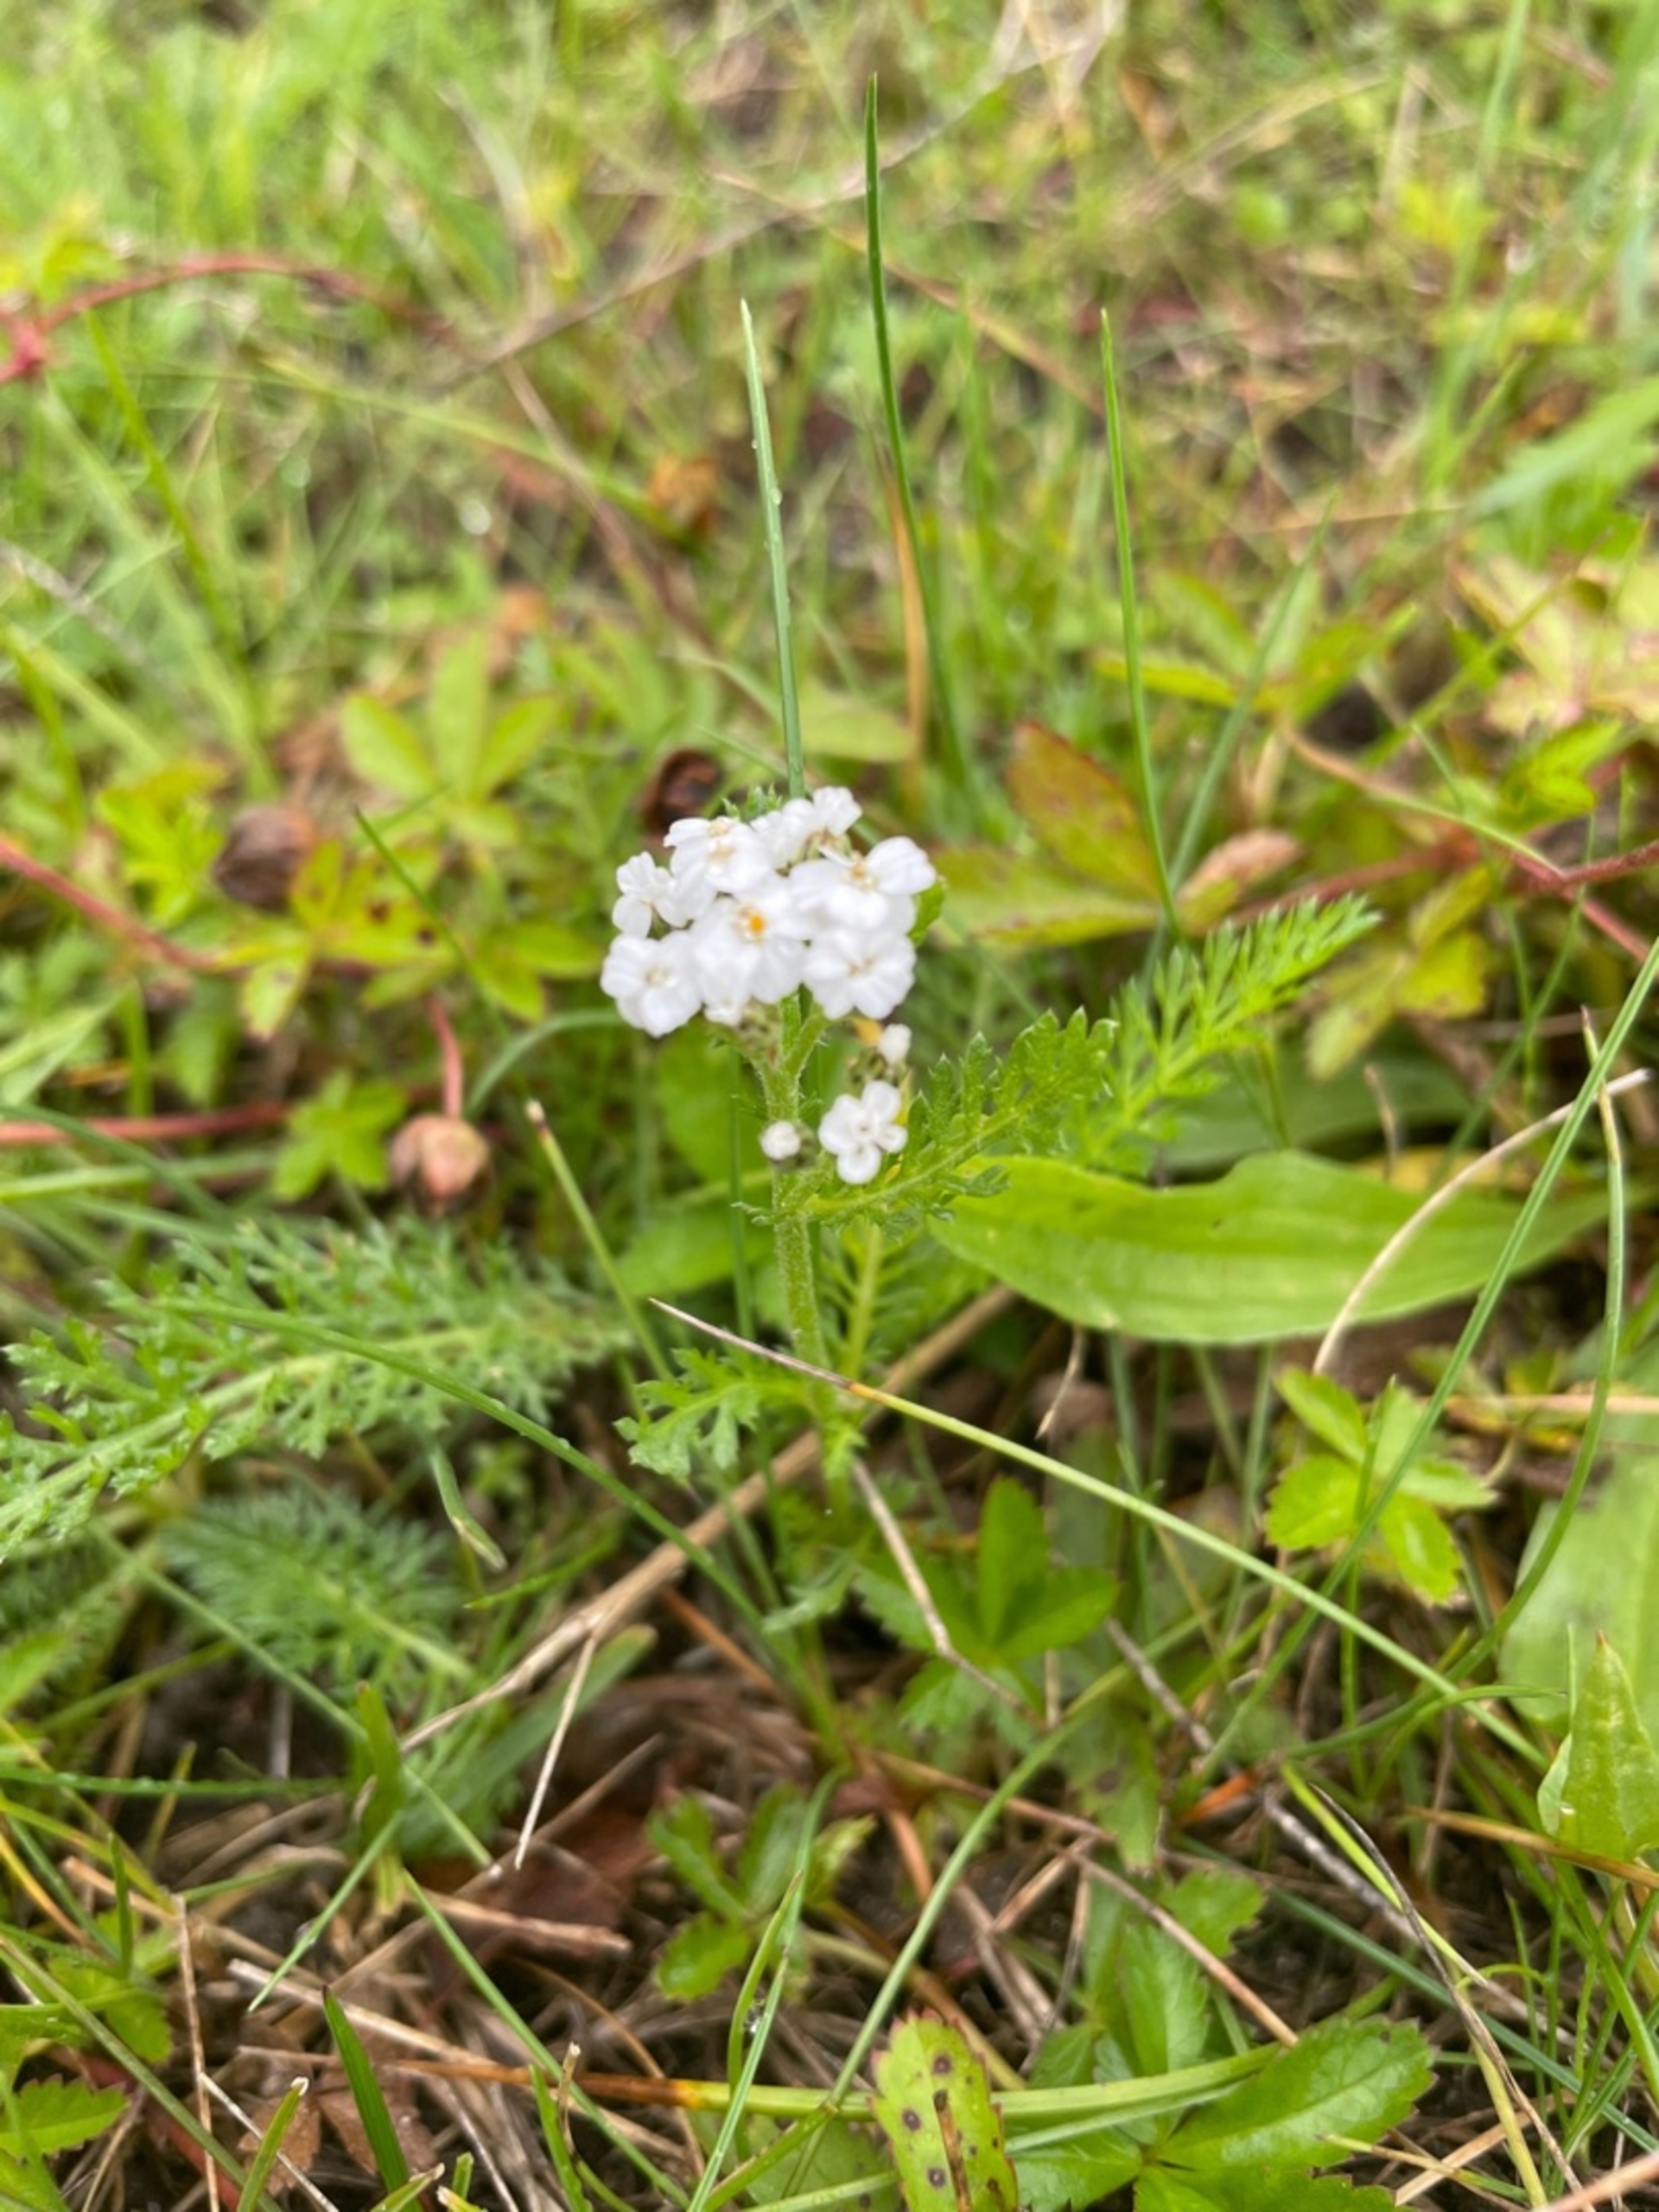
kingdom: Plantae
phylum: Tracheophyta
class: Magnoliopsida
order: Asterales
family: Asteraceae
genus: Achillea
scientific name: Achillea millefolium
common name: Almindelig røllike
